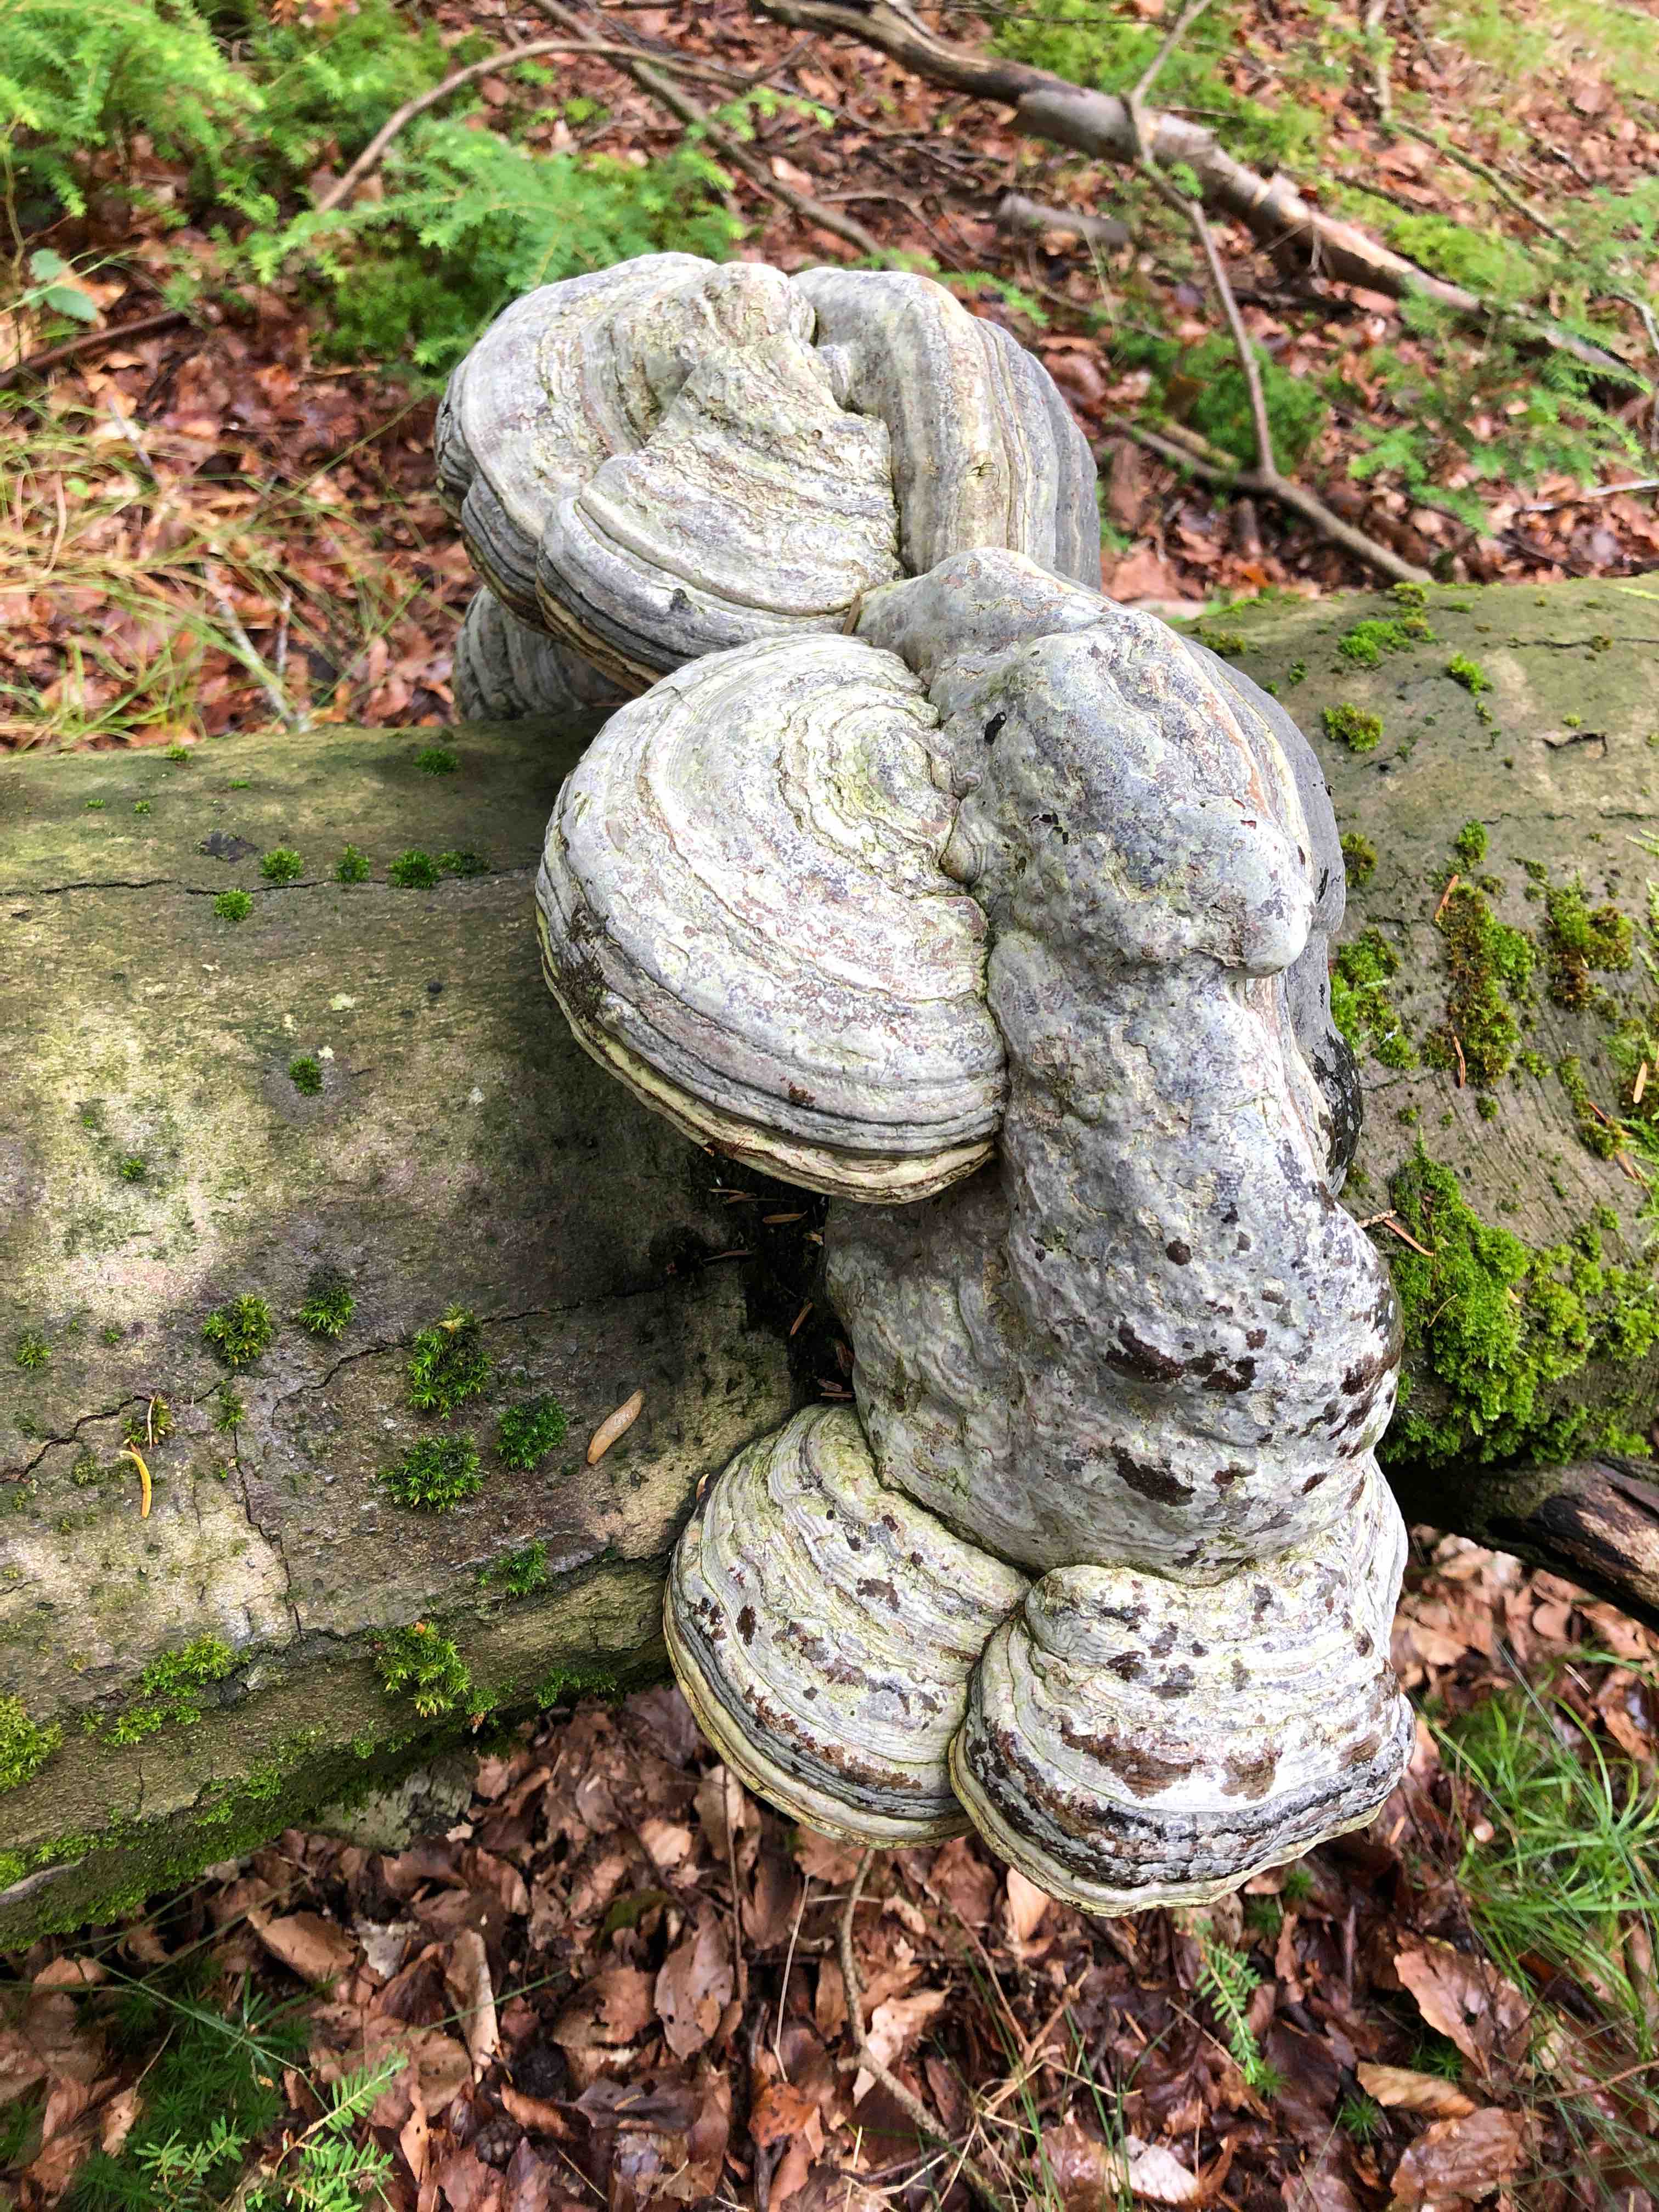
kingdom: Fungi
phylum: Basidiomycota
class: Agaricomycetes
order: Polyporales
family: Polyporaceae
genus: Fomes
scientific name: Fomes fomentarius
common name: tøndersvamp
